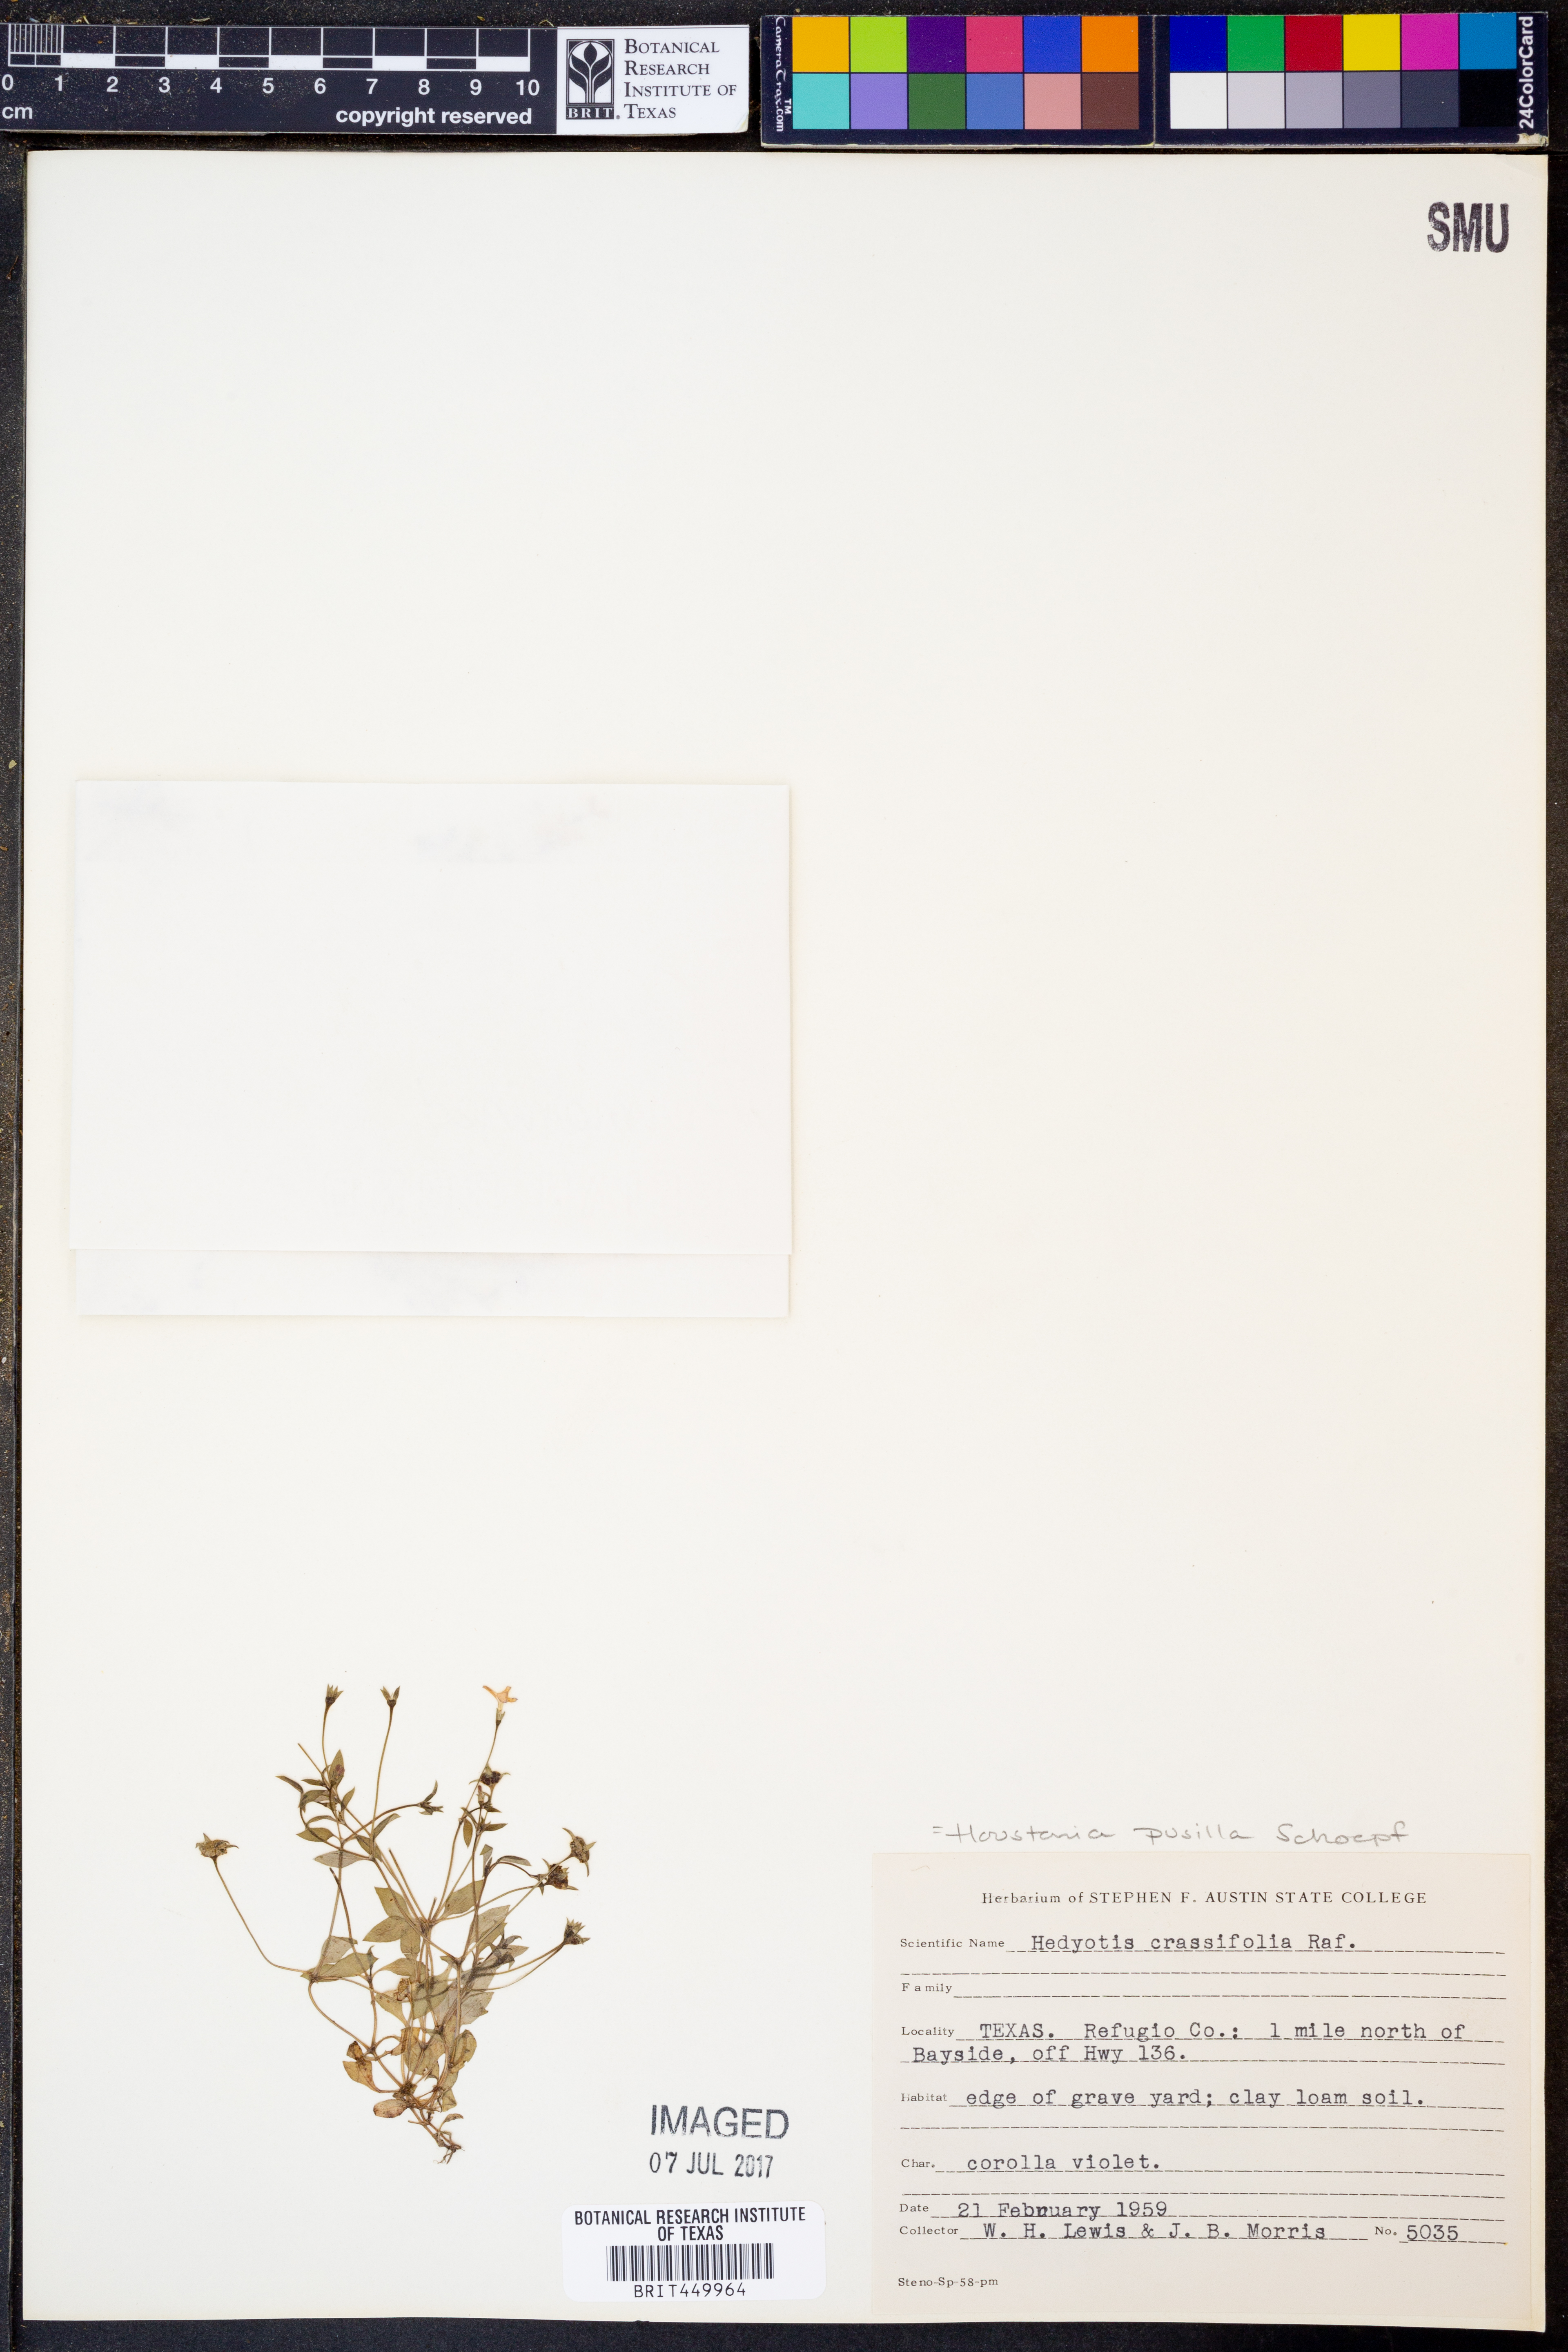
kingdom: Plantae
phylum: Tracheophyta
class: Magnoliopsida
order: Gentianales
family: Rubiaceae
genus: Houstonia
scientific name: Houstonia pusilla
